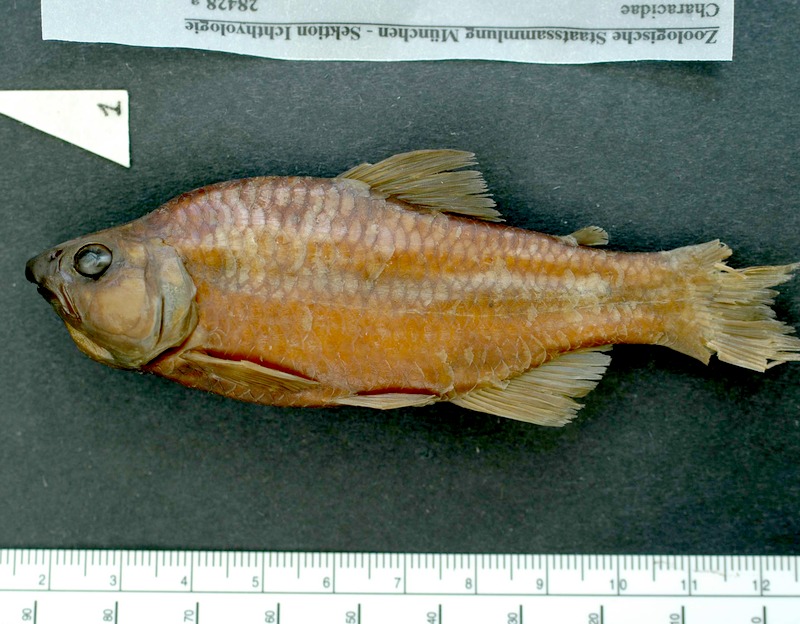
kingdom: Animalia
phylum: Chordata
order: Characiformes
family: Characidae
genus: Creagrutus
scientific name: Creagrutus amoenus
